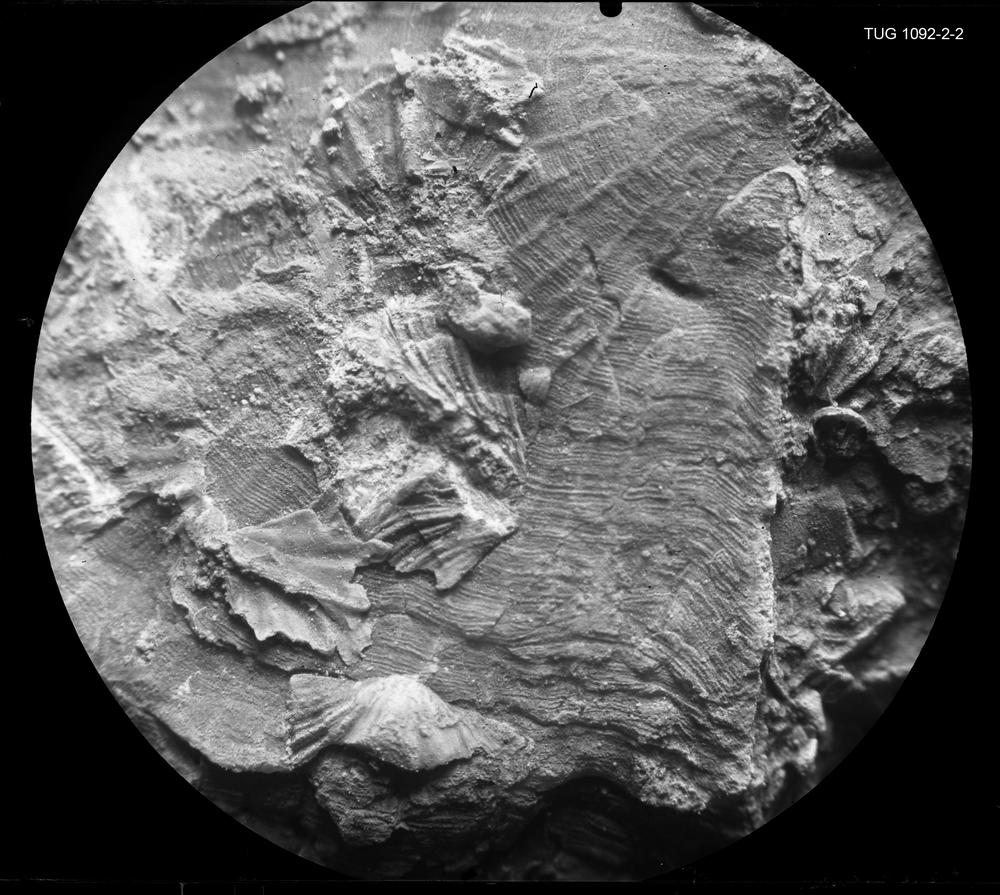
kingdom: Animalia
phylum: Brachiopoda
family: Plectambonitidae
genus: Ingria
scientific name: Ingria Orthisina nefedyevi
